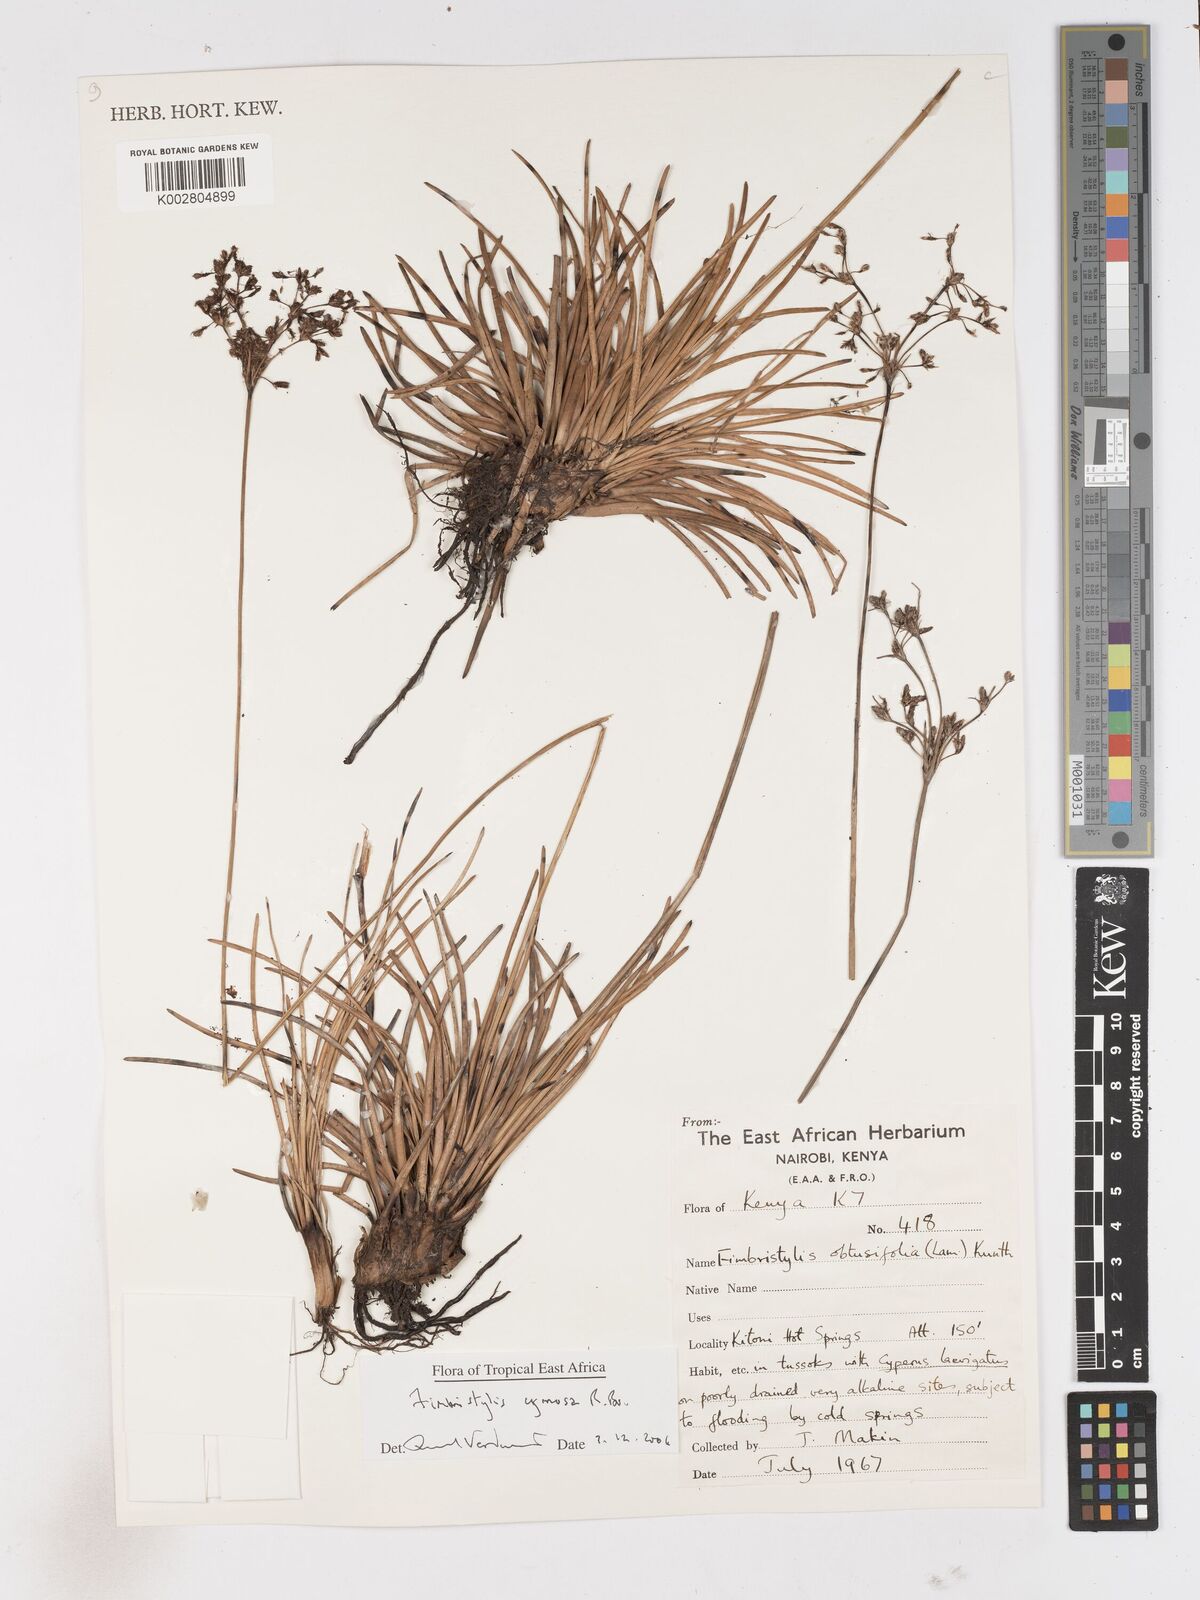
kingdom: Plantae
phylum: Tracheophyta
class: Liliopsida
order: Poales
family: Cyperaceae
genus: Fimbristylis
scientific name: Fimbristylis cymosa
